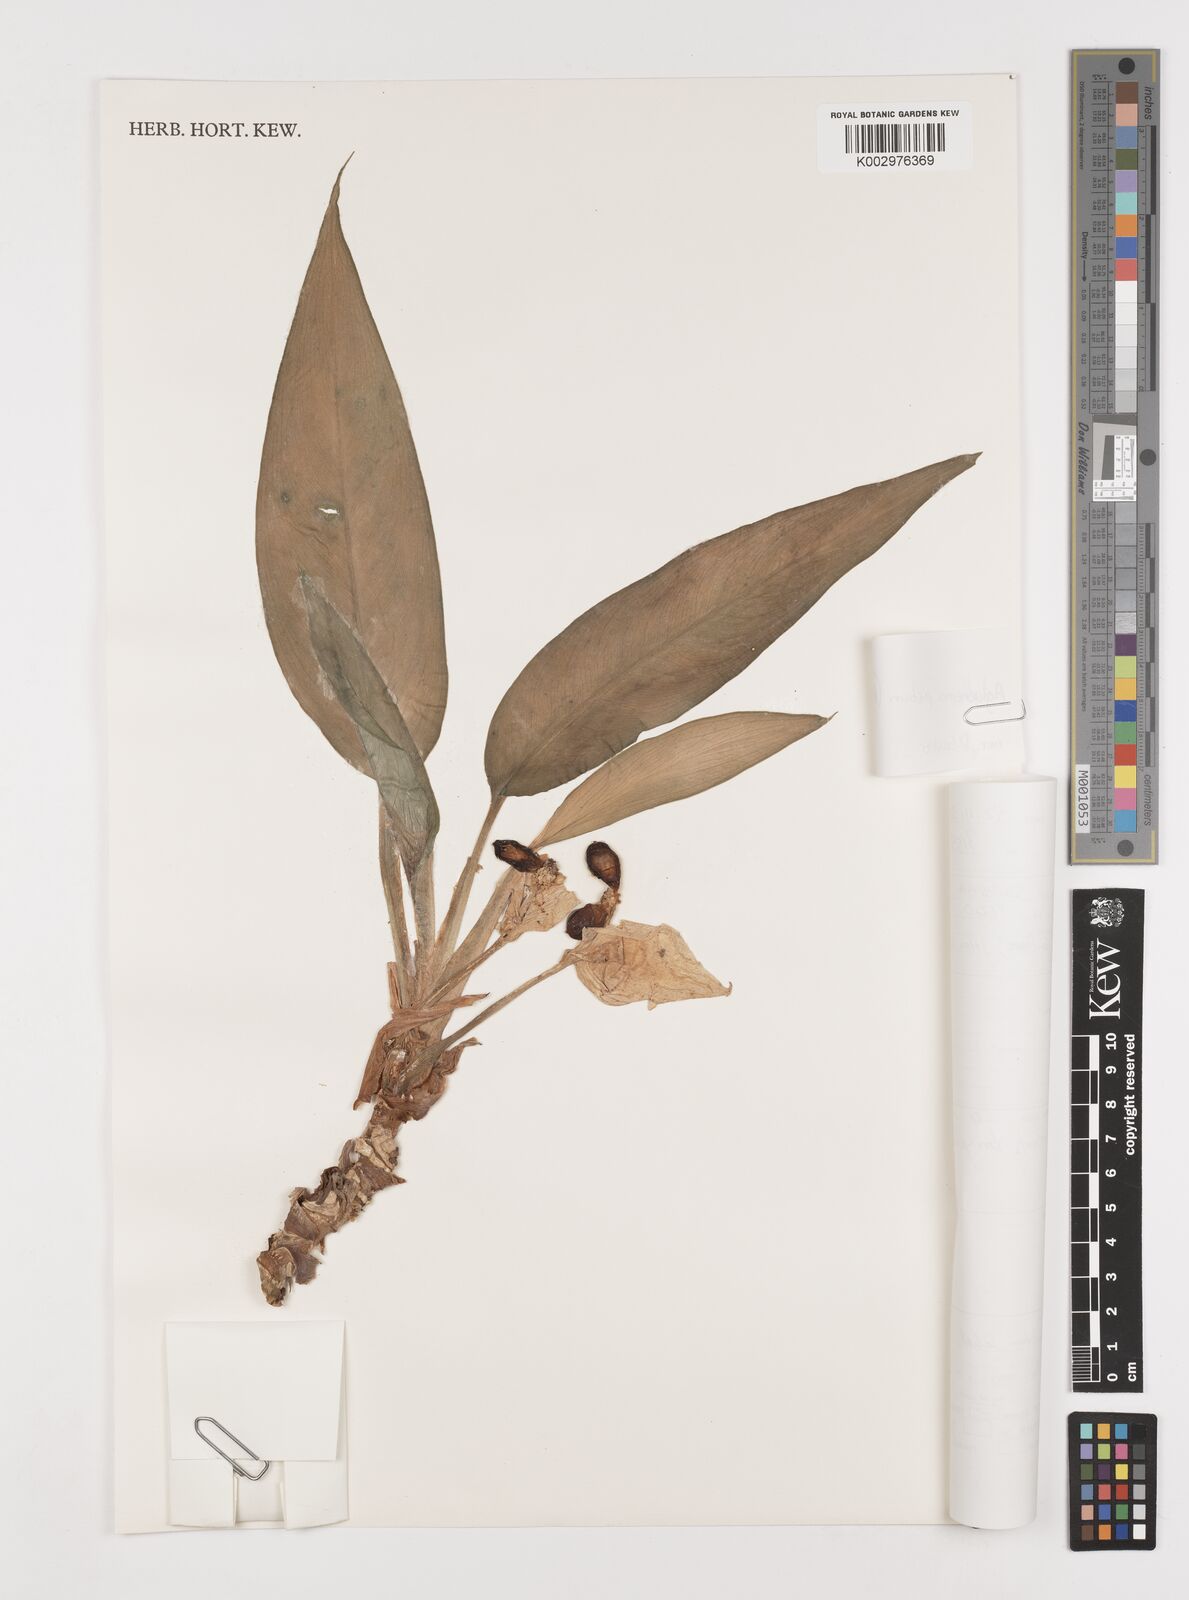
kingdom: Plantae
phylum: Tracheophyta
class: Liliopsida
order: Alismatales
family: Araceae
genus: Aglaonema
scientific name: Aglaonema commutatum
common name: Philippine evergreen
